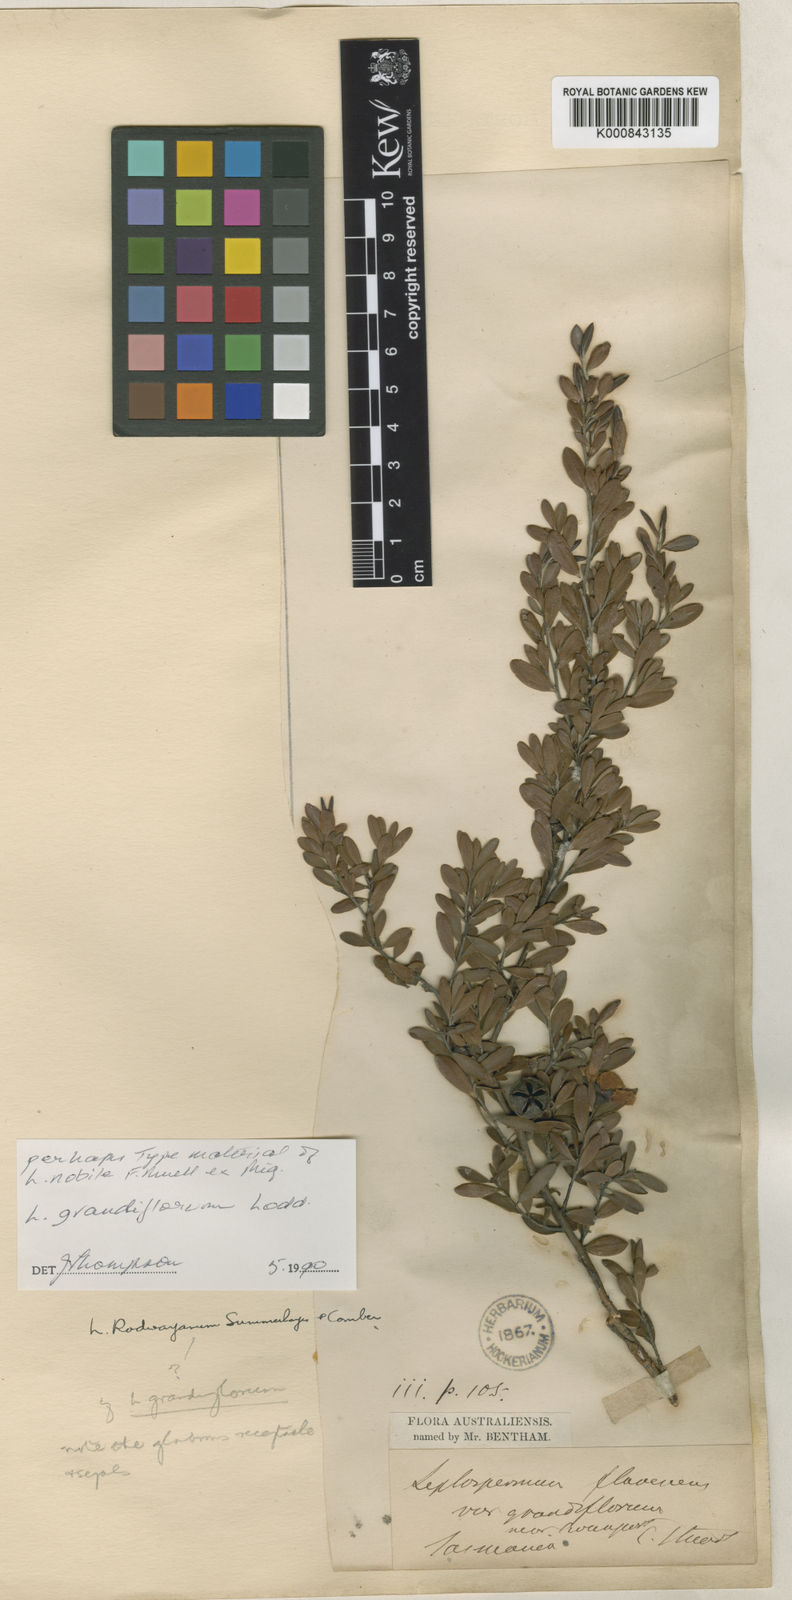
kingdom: Plantae
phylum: Tracheophyta
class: Magnoliopsida
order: Myrtales
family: Myrtaceae
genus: Leptospermum
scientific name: Leptospermum grandiflorum
